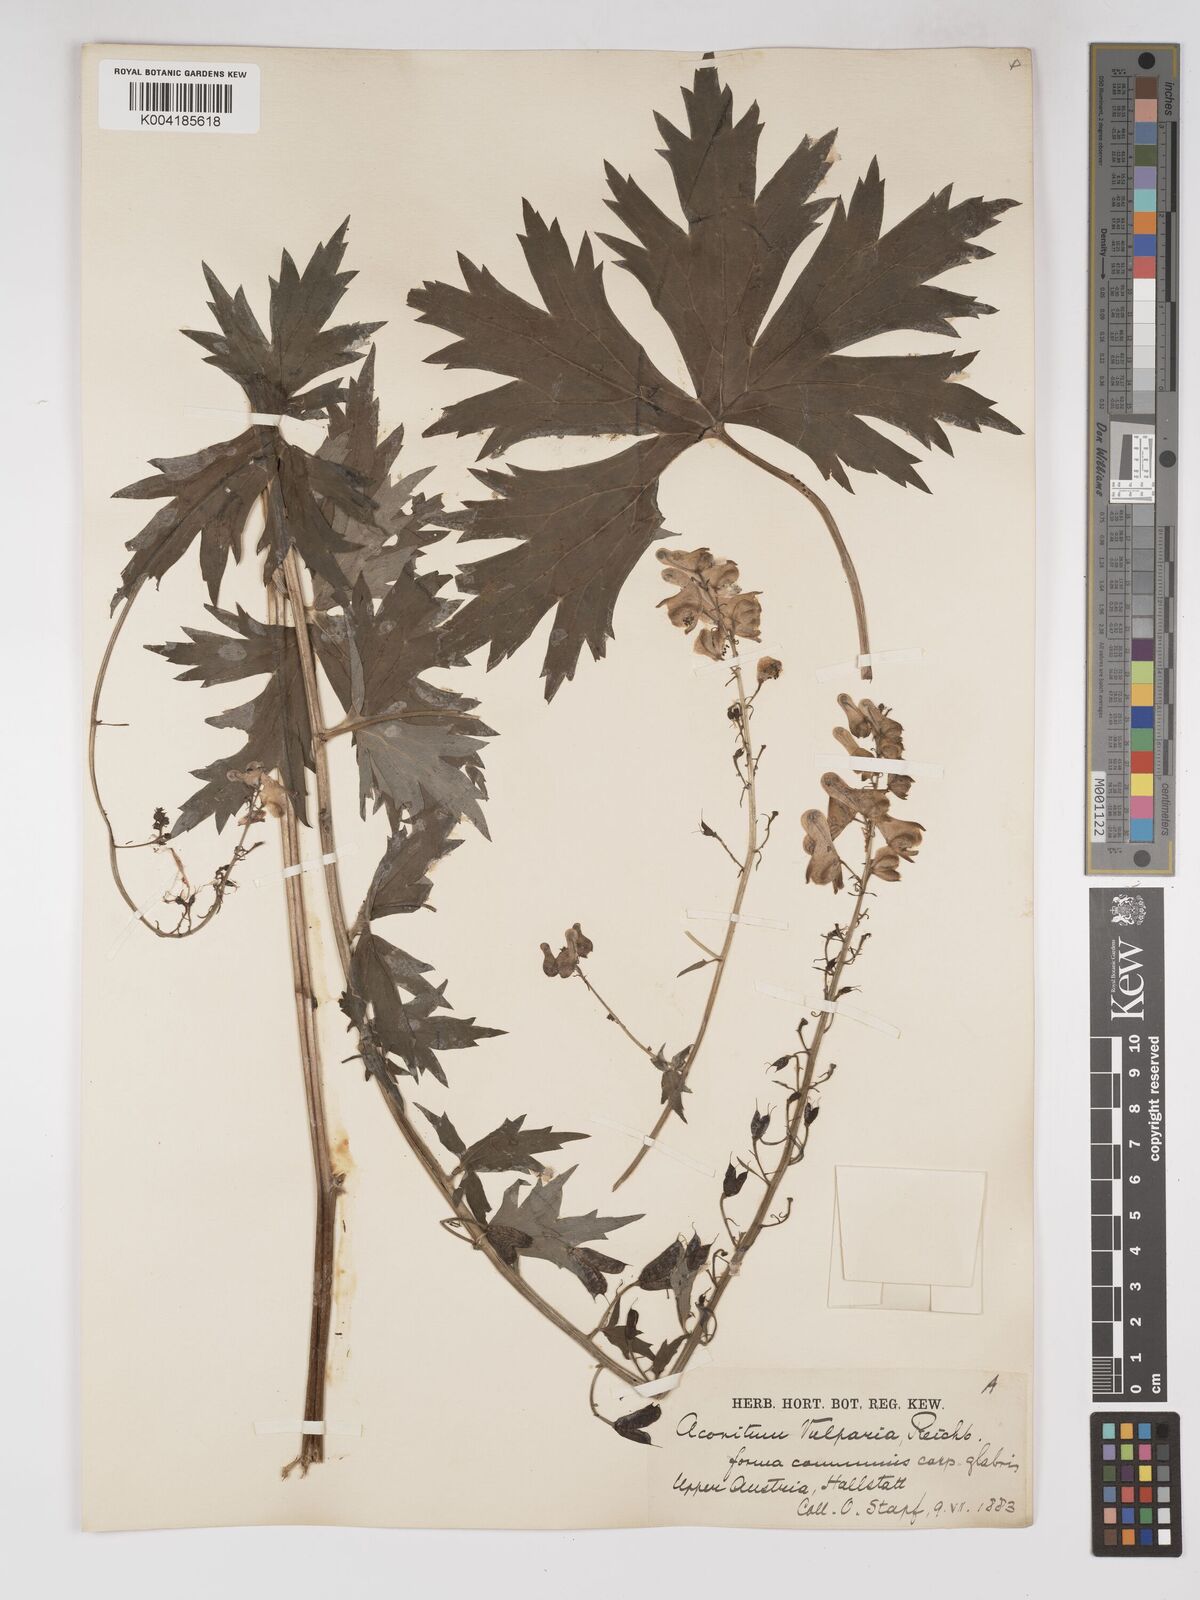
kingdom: Plantae
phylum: Tracheophyta
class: Magnoliopsida
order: Ranunculales
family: Ranunculaceae
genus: Aconitum
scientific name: Aconitum lycoctonum
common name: Wolf's-bane
